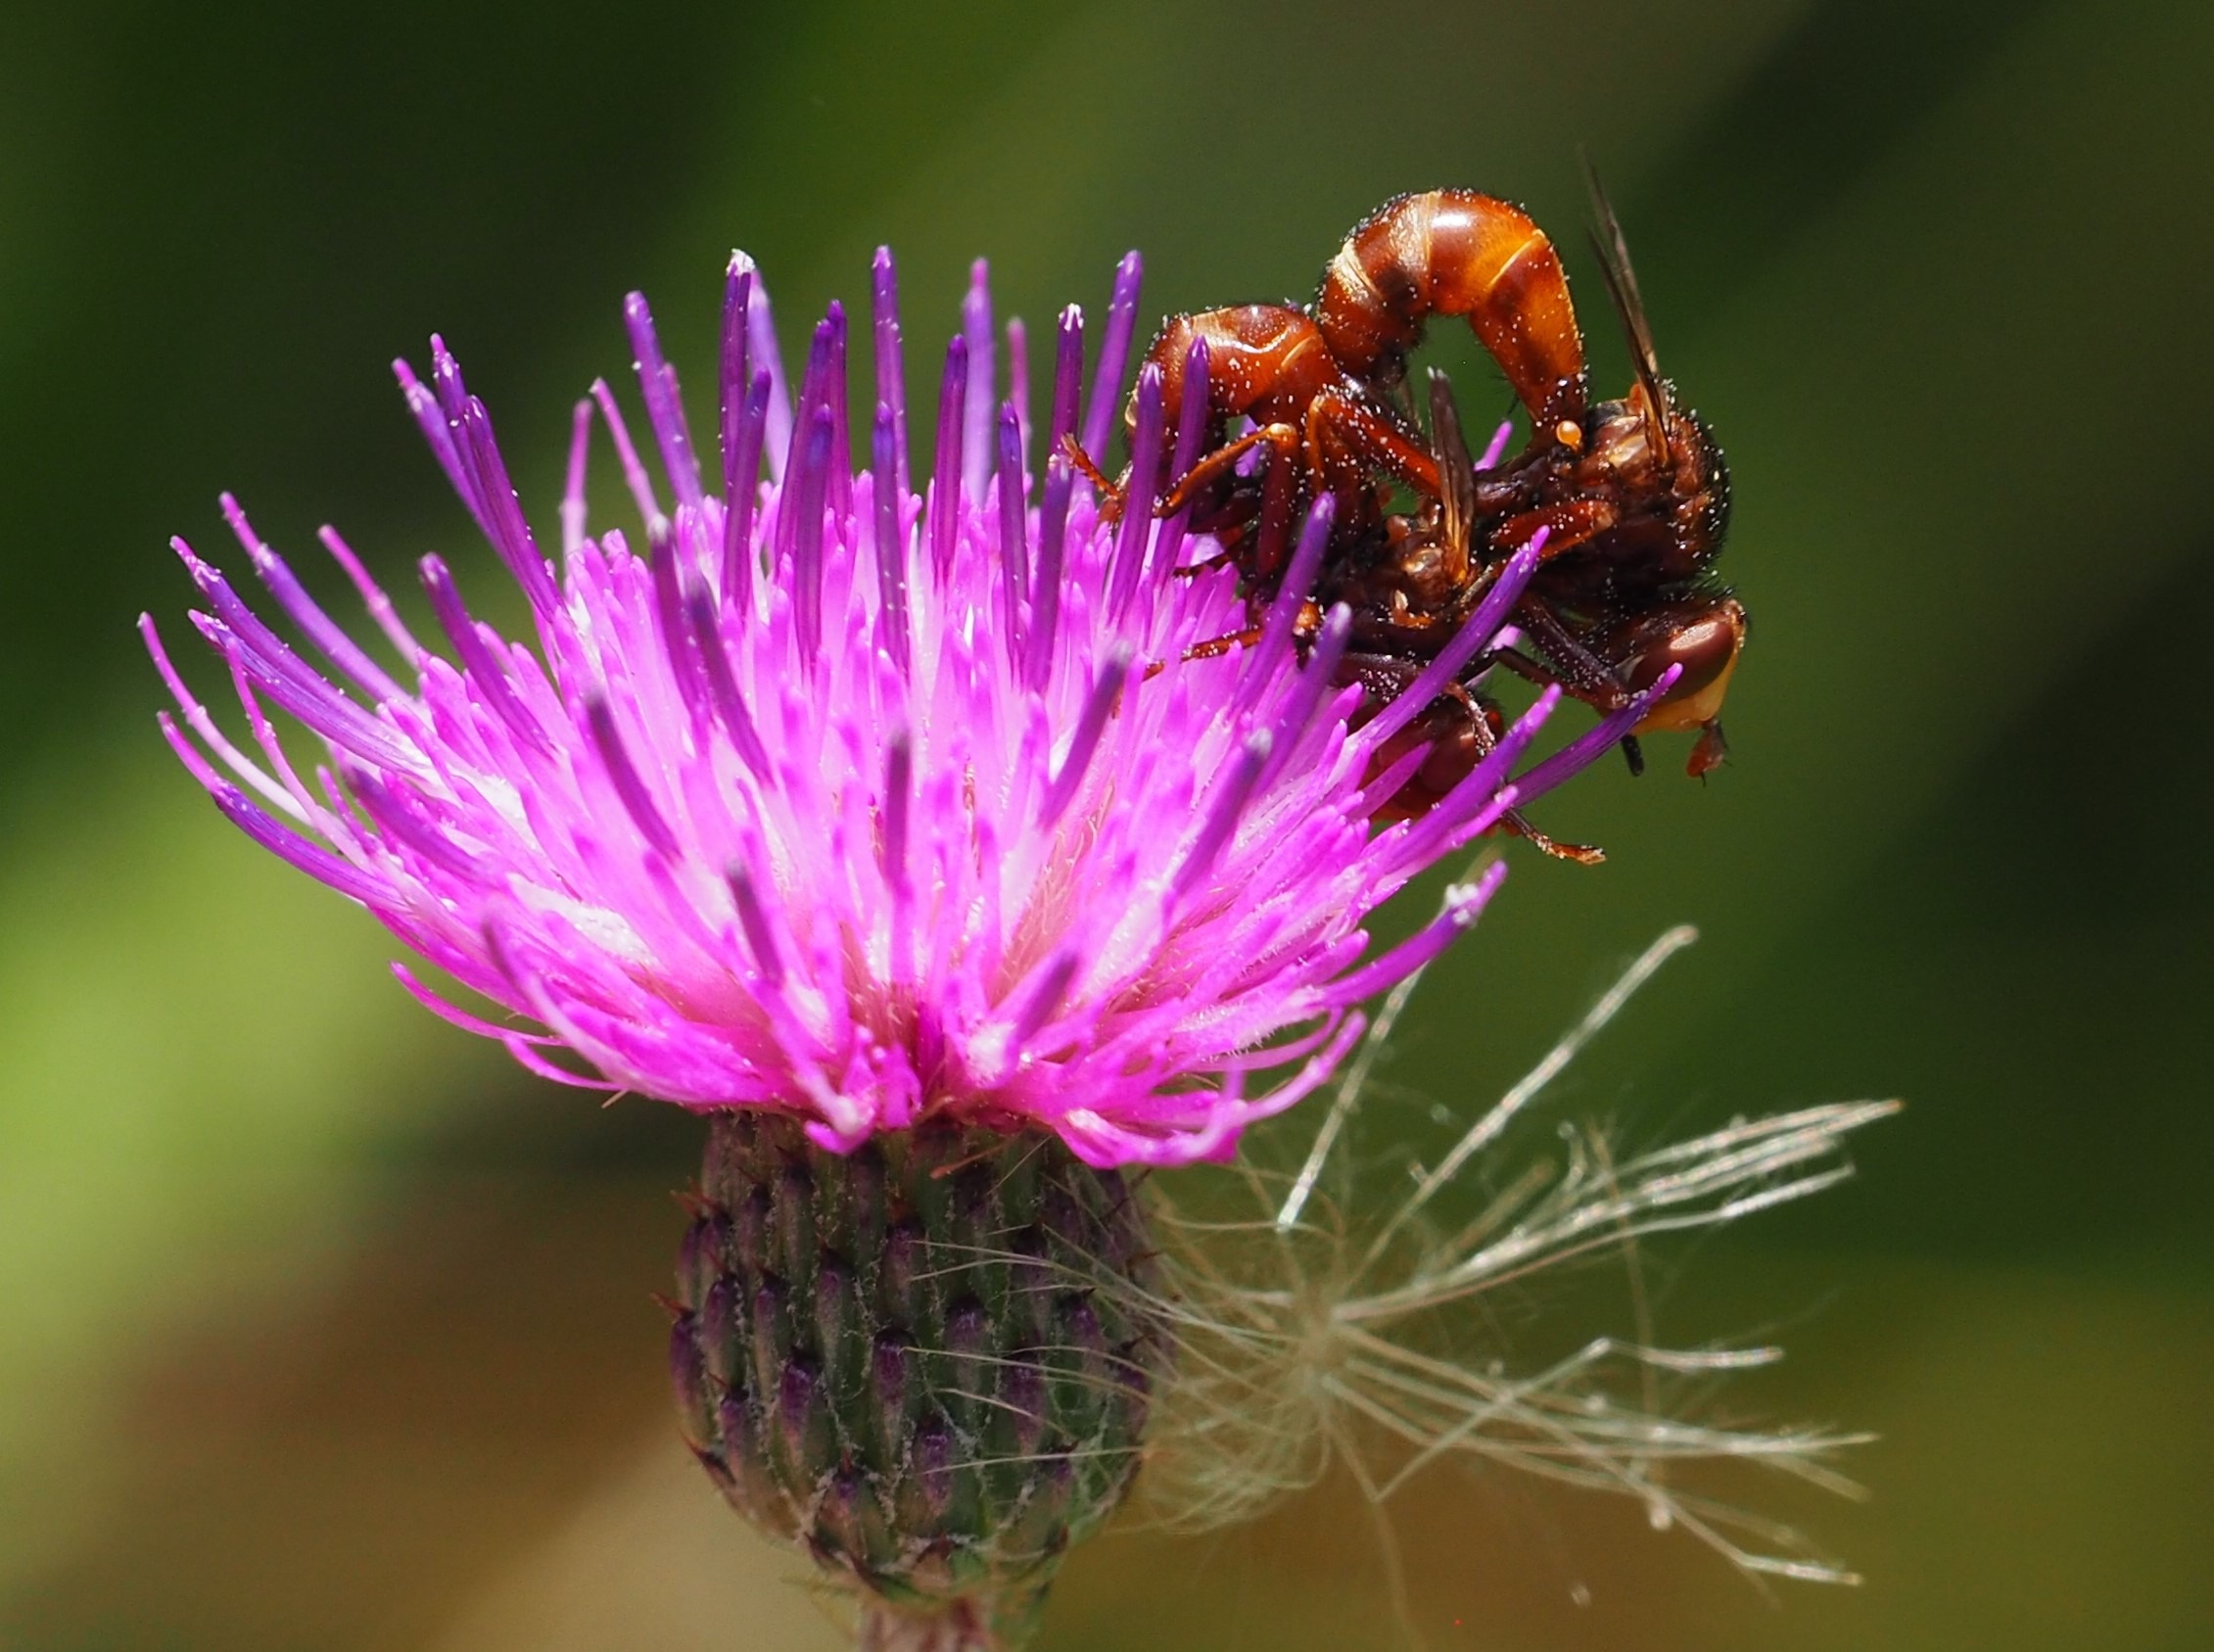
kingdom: Animalia
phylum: Arthropoda
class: Insecta
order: Diptera
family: Conopidae
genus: Sicus
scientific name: Sicus ferrugineus
